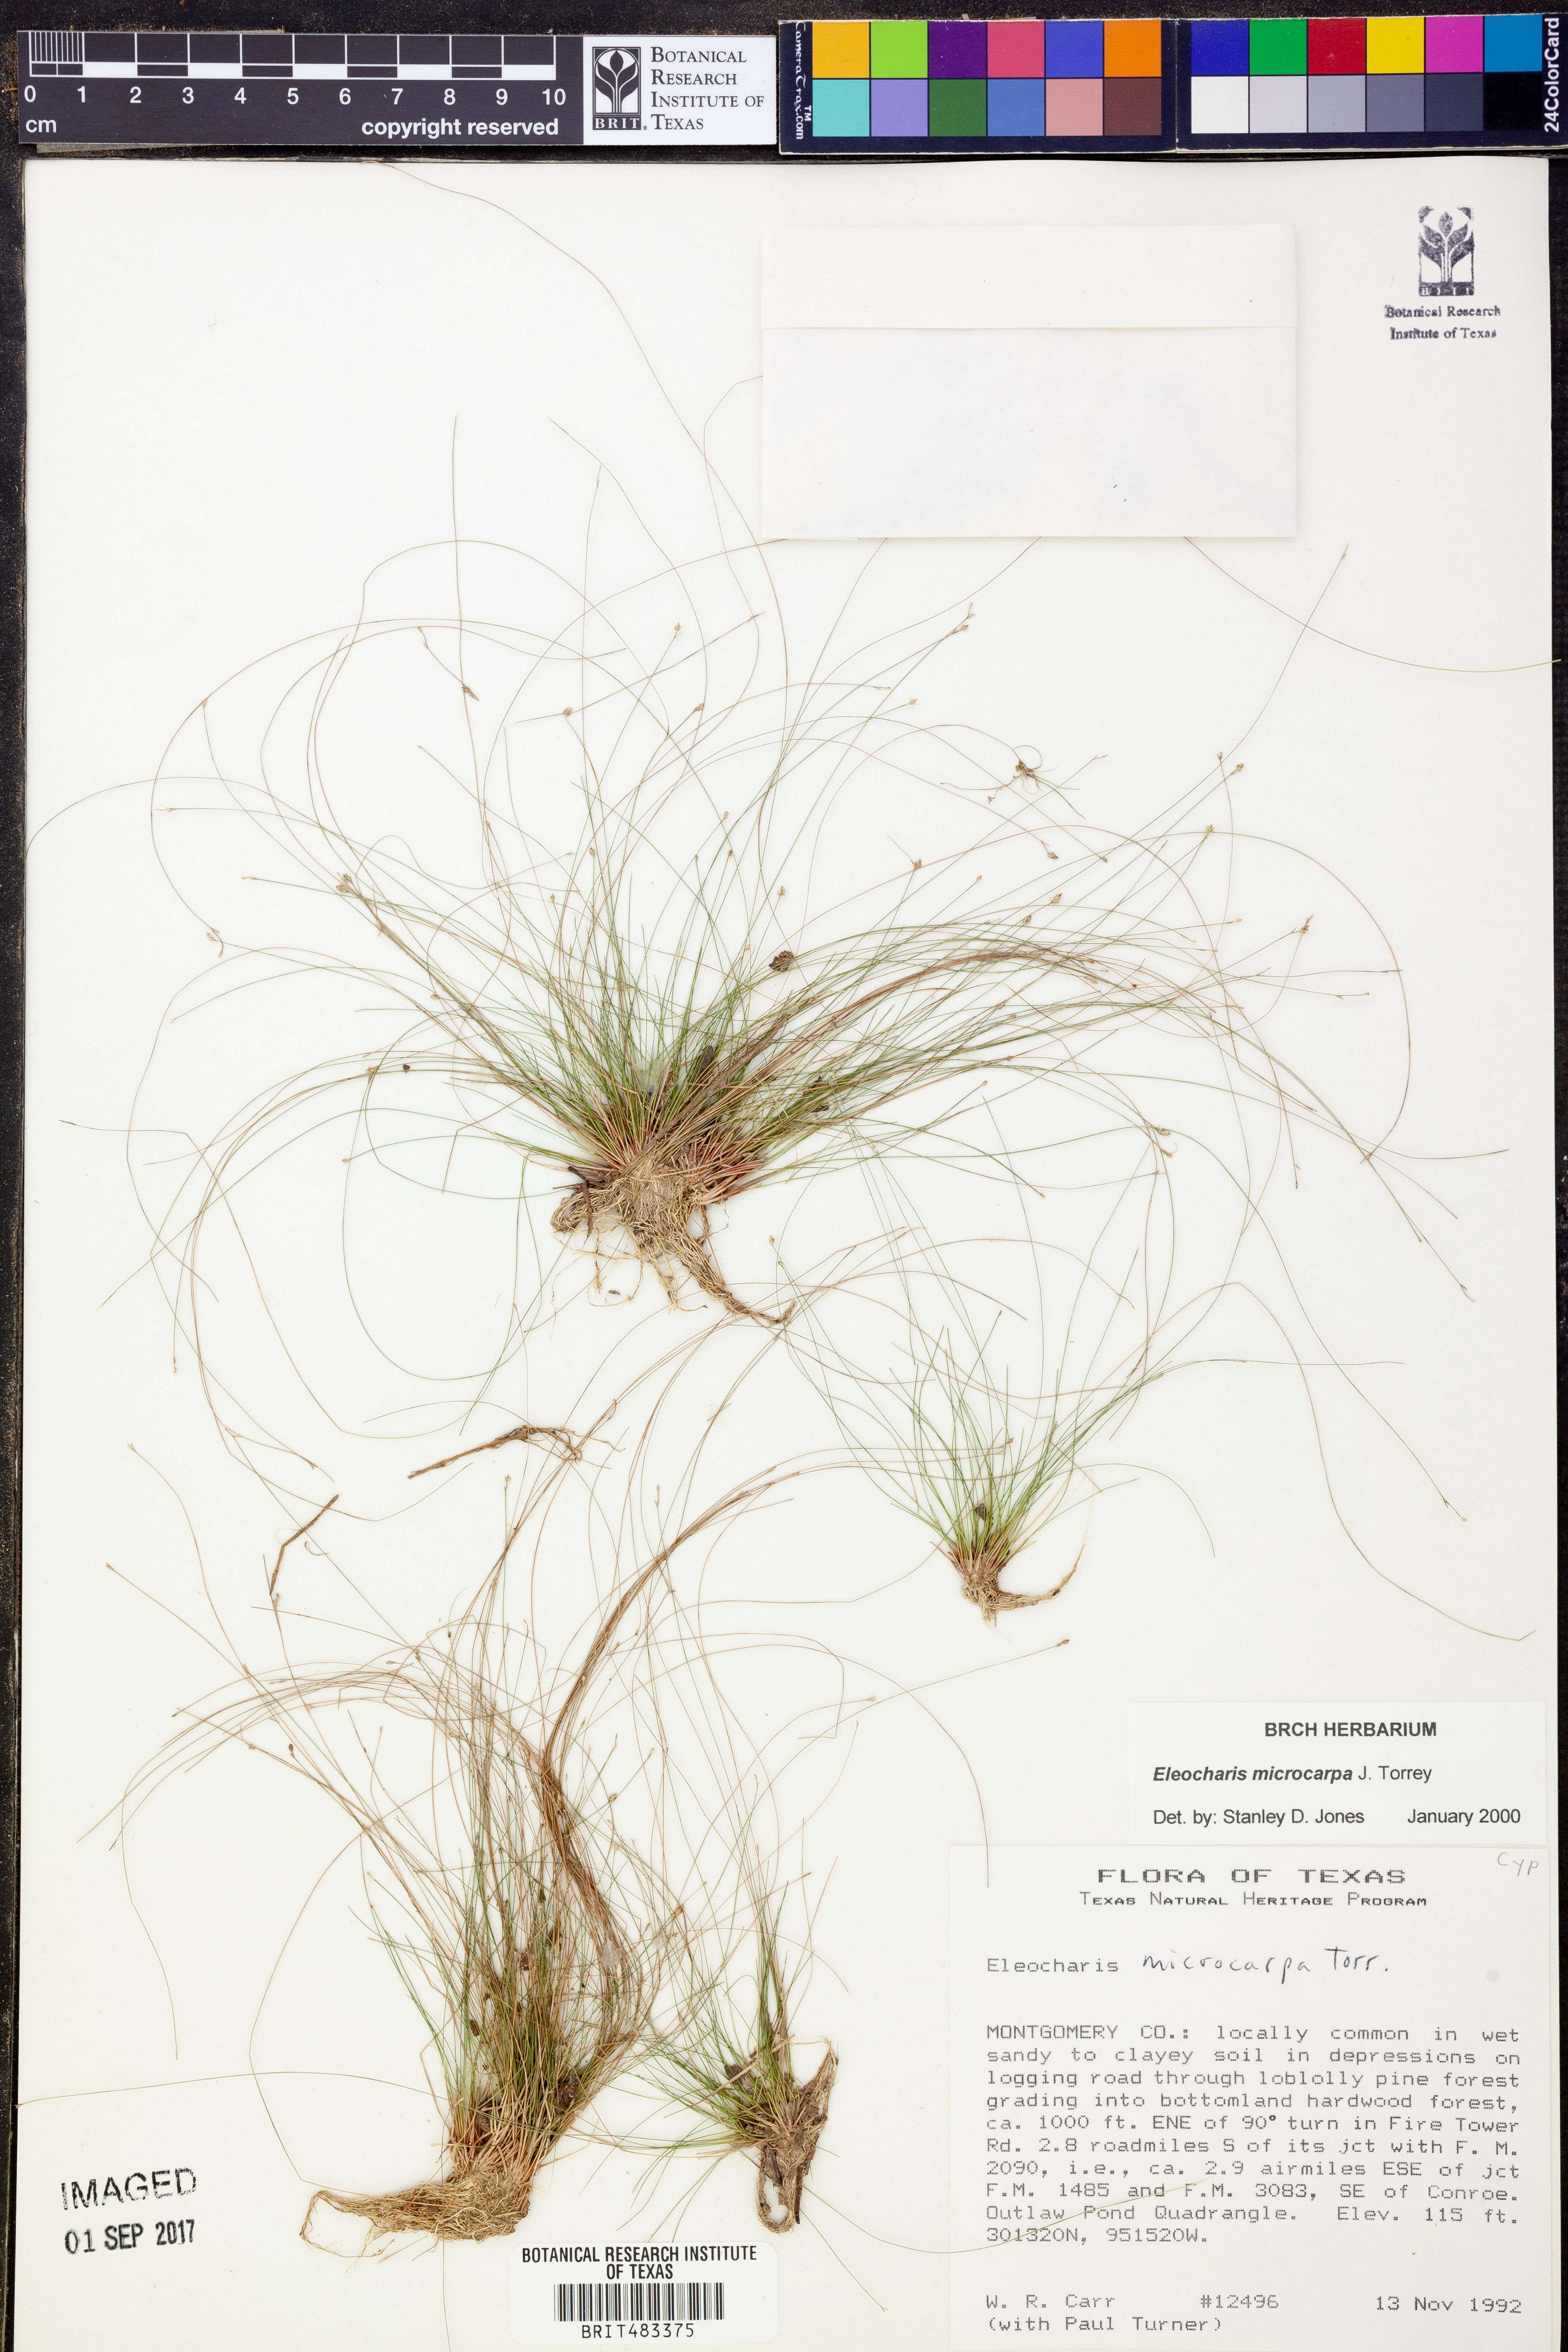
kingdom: Plantae
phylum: Tracheophyta
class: Liliopsida
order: Poales
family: Cyperaceae
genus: Eleocharis
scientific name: Eleocharis microcarpa
